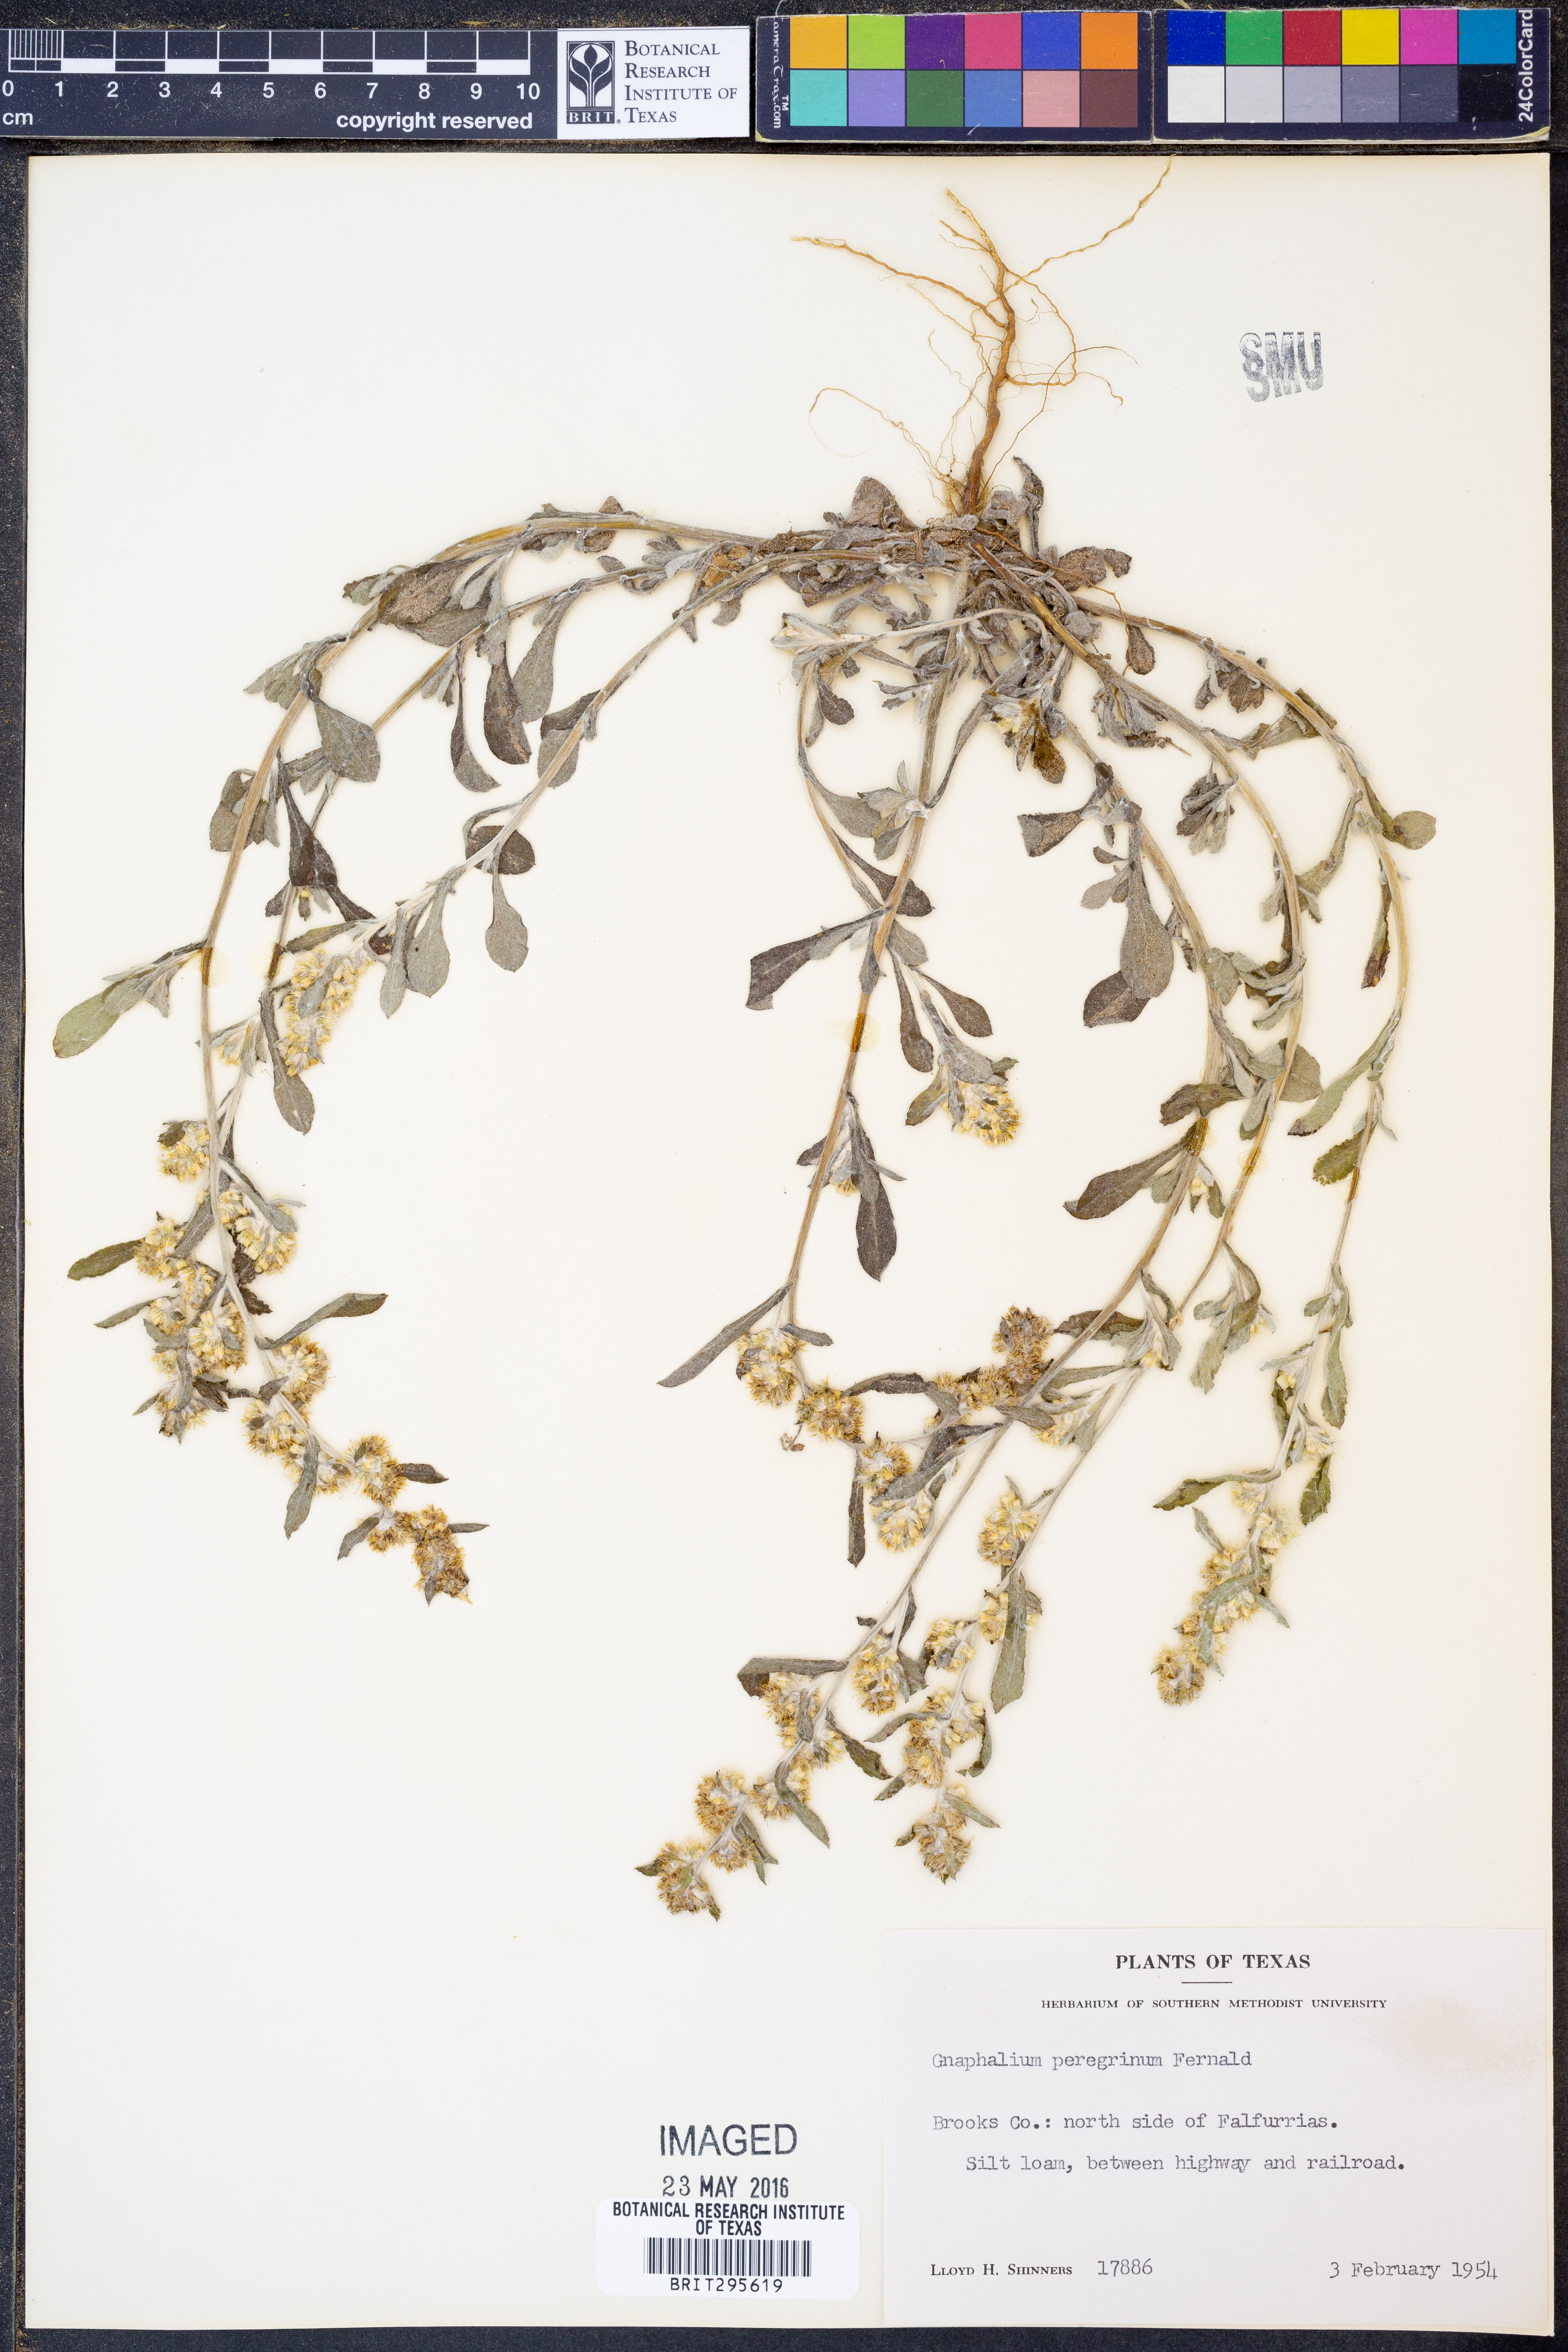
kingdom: Plantae
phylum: Tracheophyta
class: Magnoliopsida
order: Asterales
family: Asteraceae
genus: Gamochaeta
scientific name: Gamochaeta pensylvanica
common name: Pennsylvania everlasting
